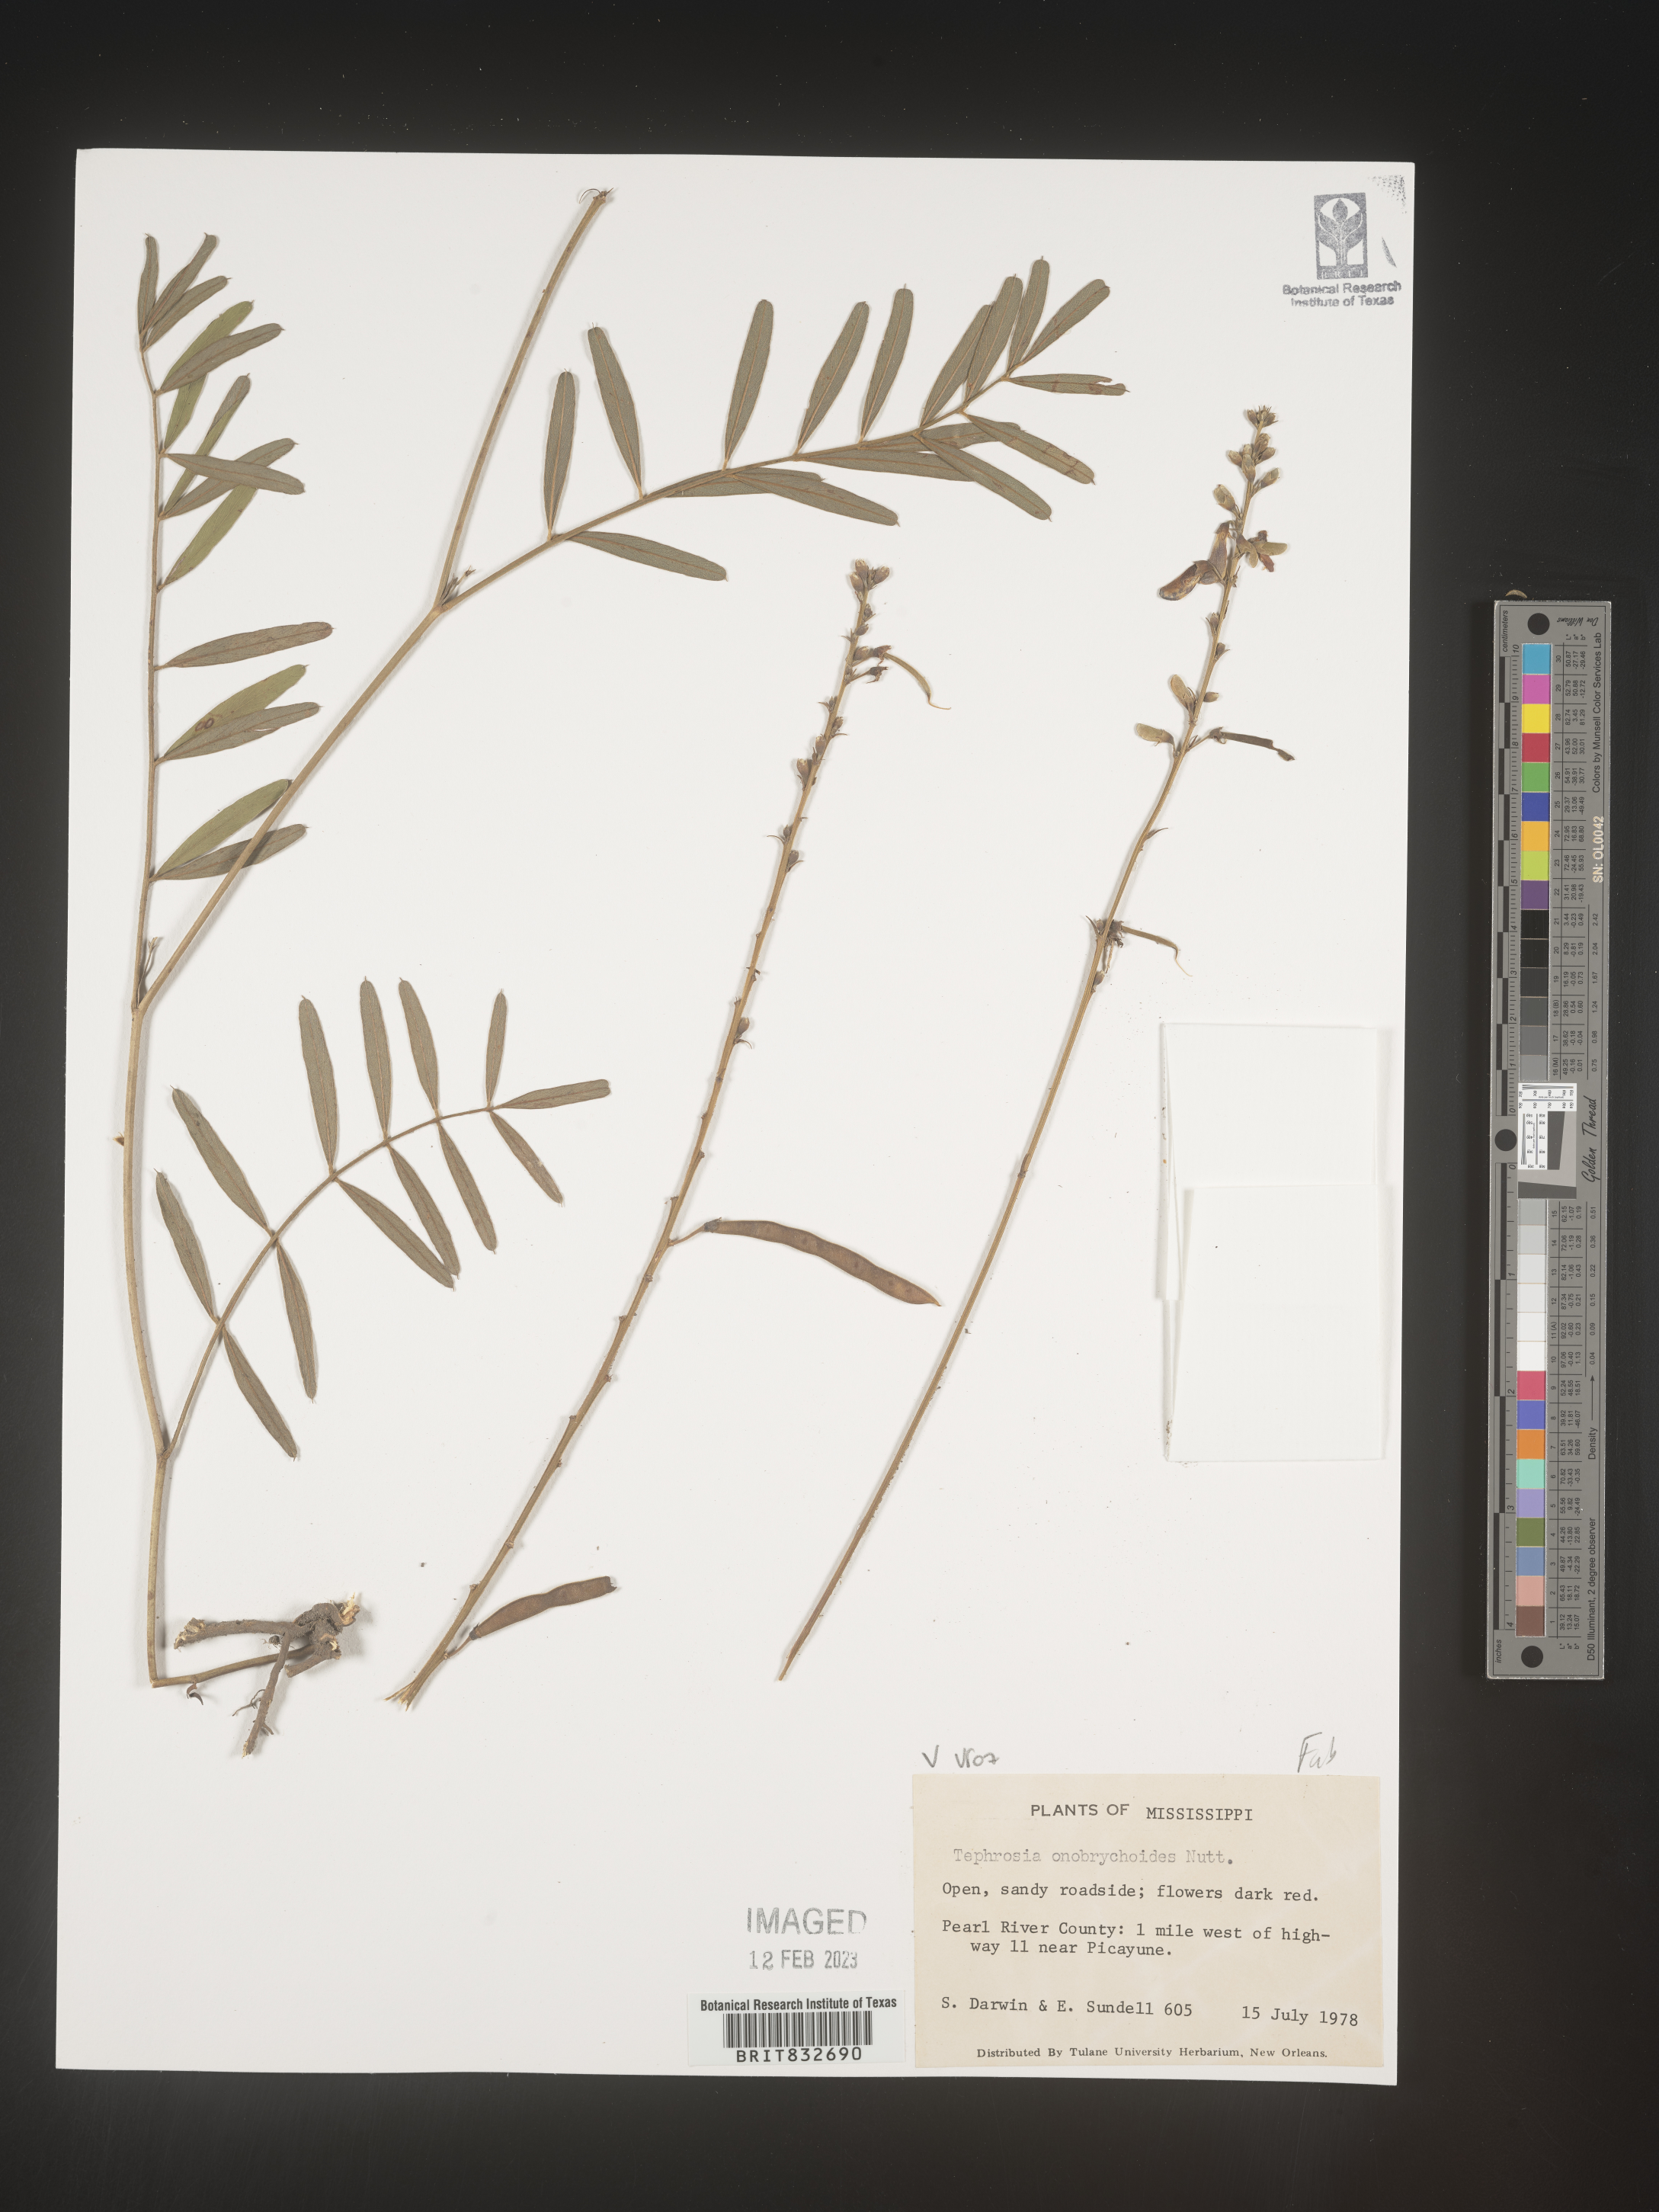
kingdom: Plantae
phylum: Tracheophyta
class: Magnoliopsida
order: Fabales
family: Fabaceae
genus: Tephrosia
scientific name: Tephrosia onobrychoides
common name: Multi-bloom hoary-pea
